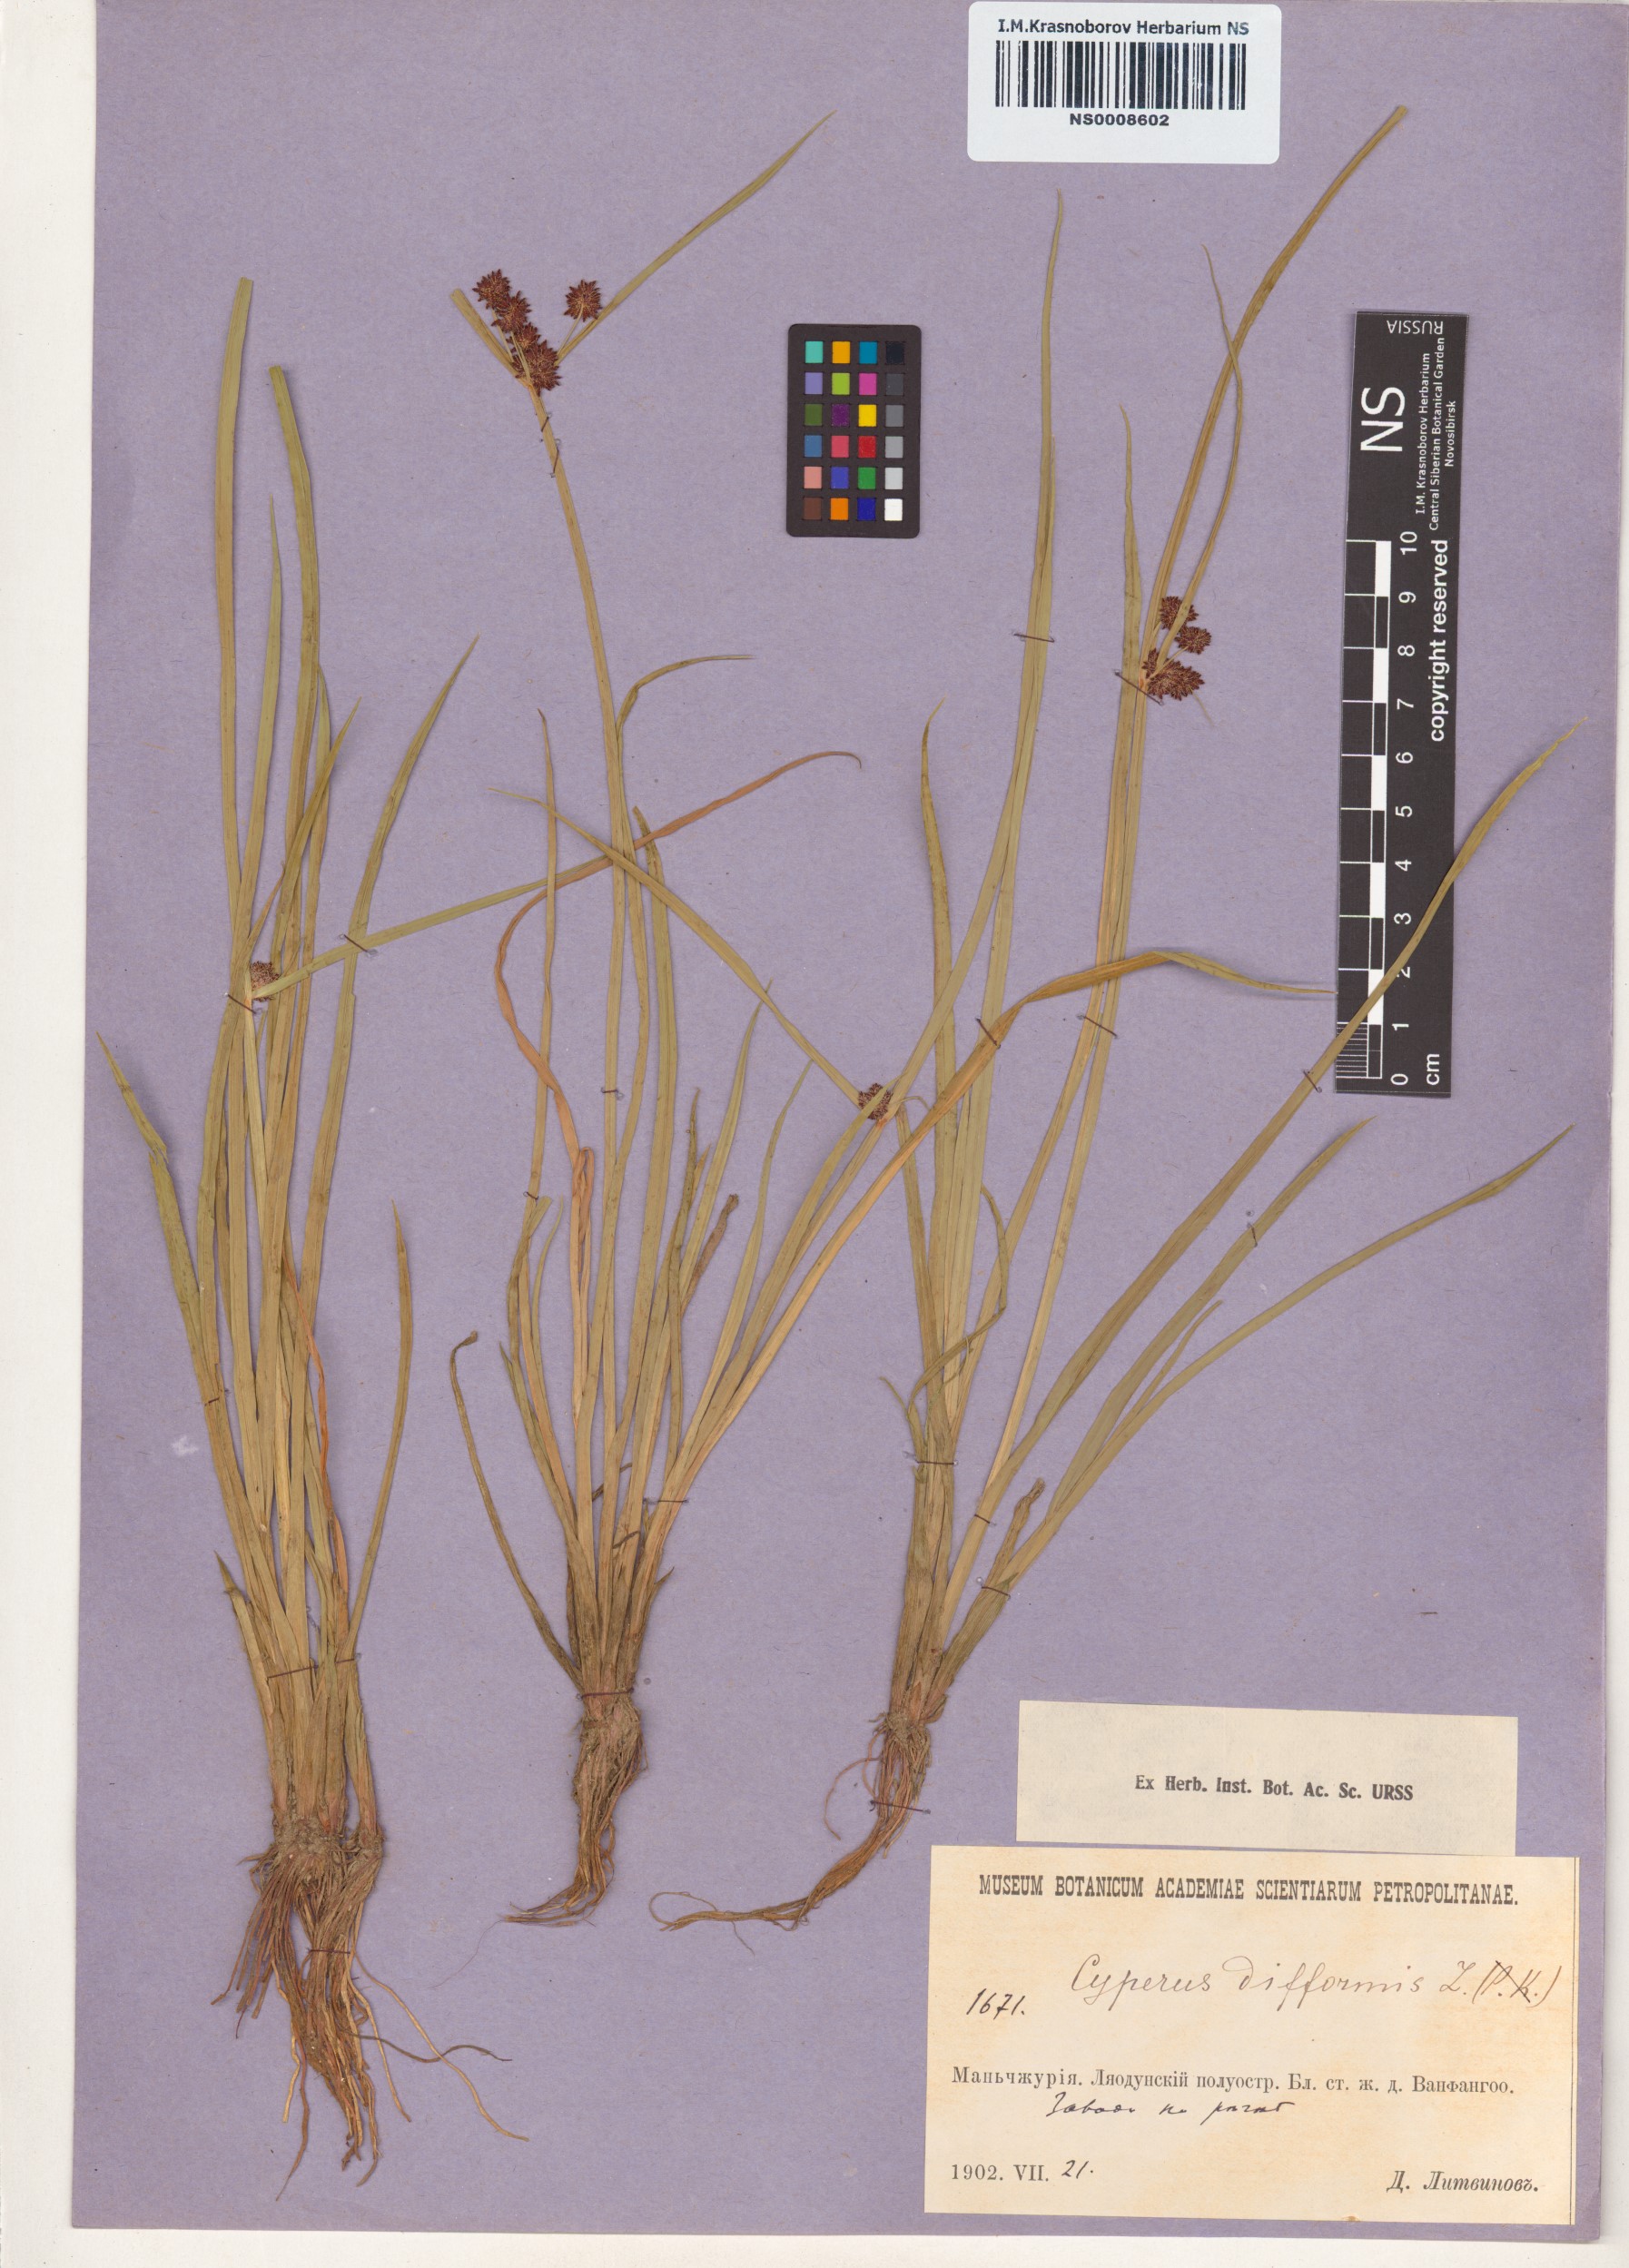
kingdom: Plantae
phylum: Tracheophyta
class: Liliopsida
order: Poales
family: Cyperaceae
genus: Cyperus
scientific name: Cyperus difformis
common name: Variable flatsedge
